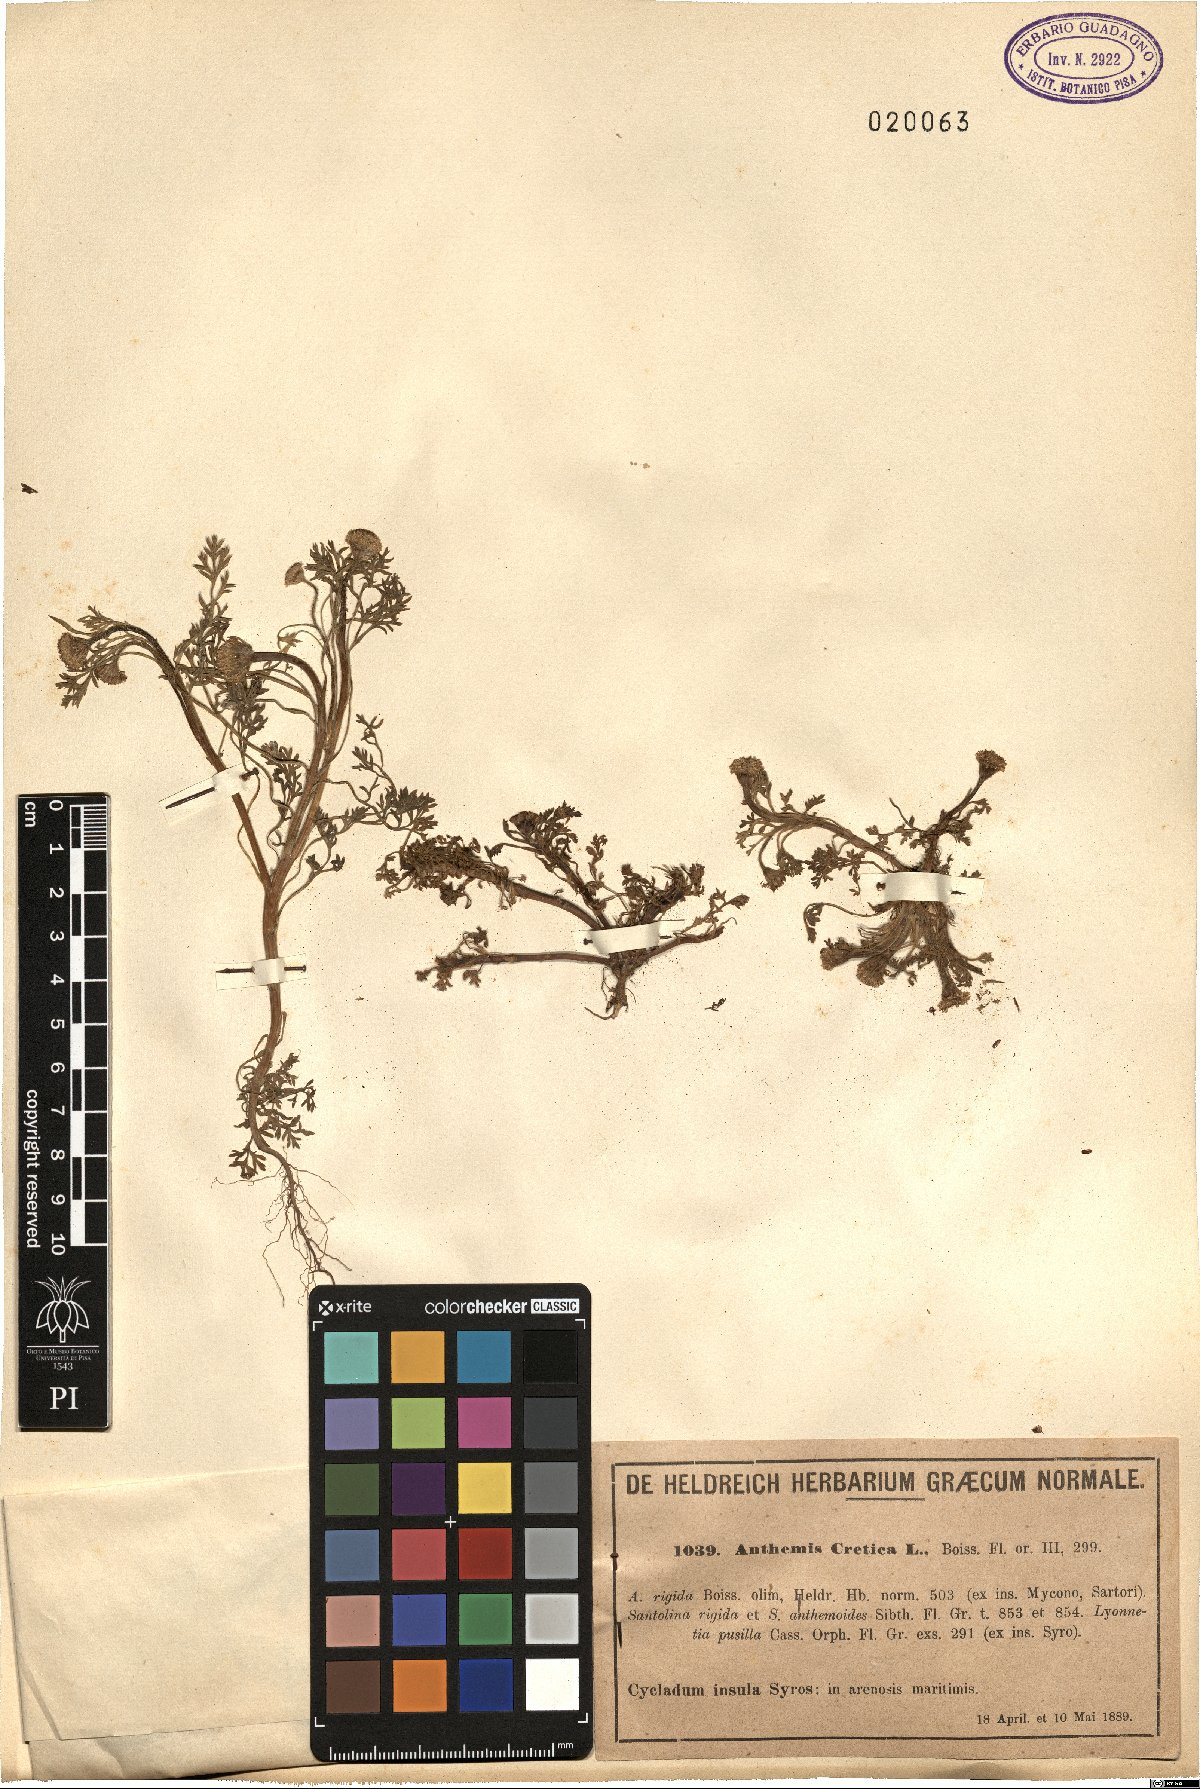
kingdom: Plantae
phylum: Tracheophyta
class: Magnoliopsida
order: Asterales
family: Asteraceae
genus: Anthemis
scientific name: Anthemis cretica
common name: Mountain dog-daisy
